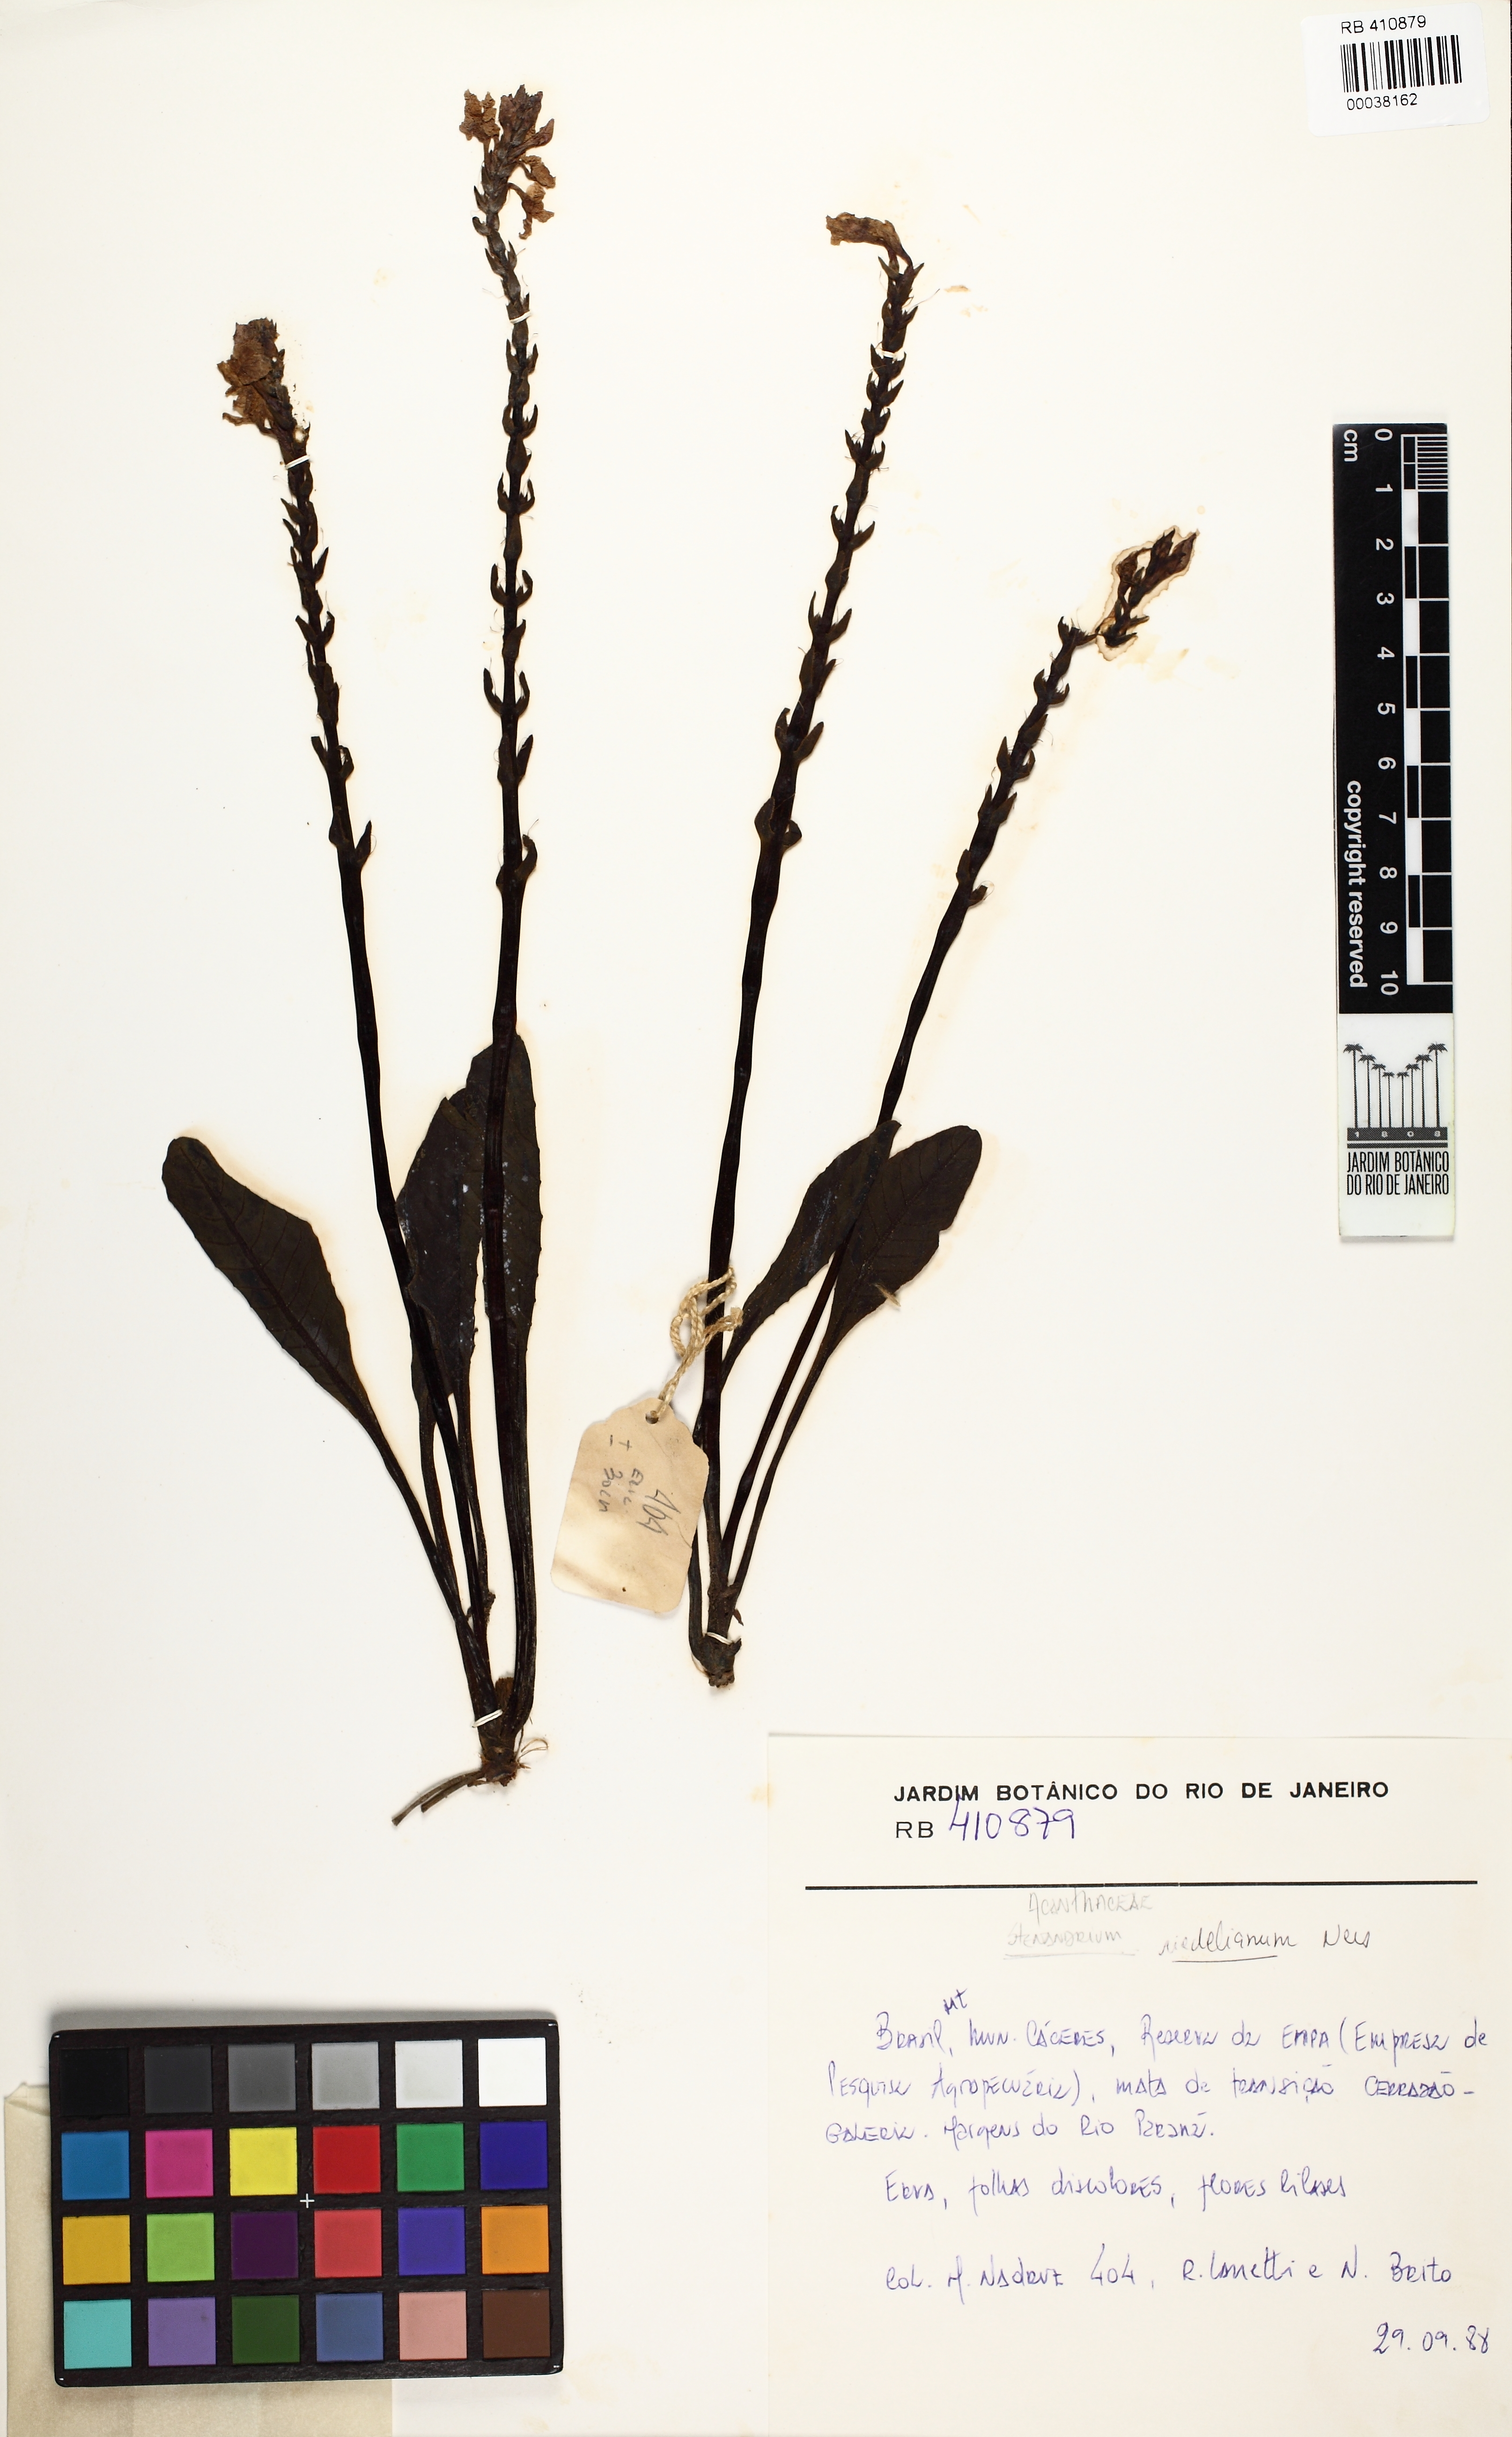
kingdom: Plantae
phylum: Tracheophyta
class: Magnoliopsida
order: Lamiales
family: Acanthaceae
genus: Stenandrium
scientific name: Stenandrium riedelianum
